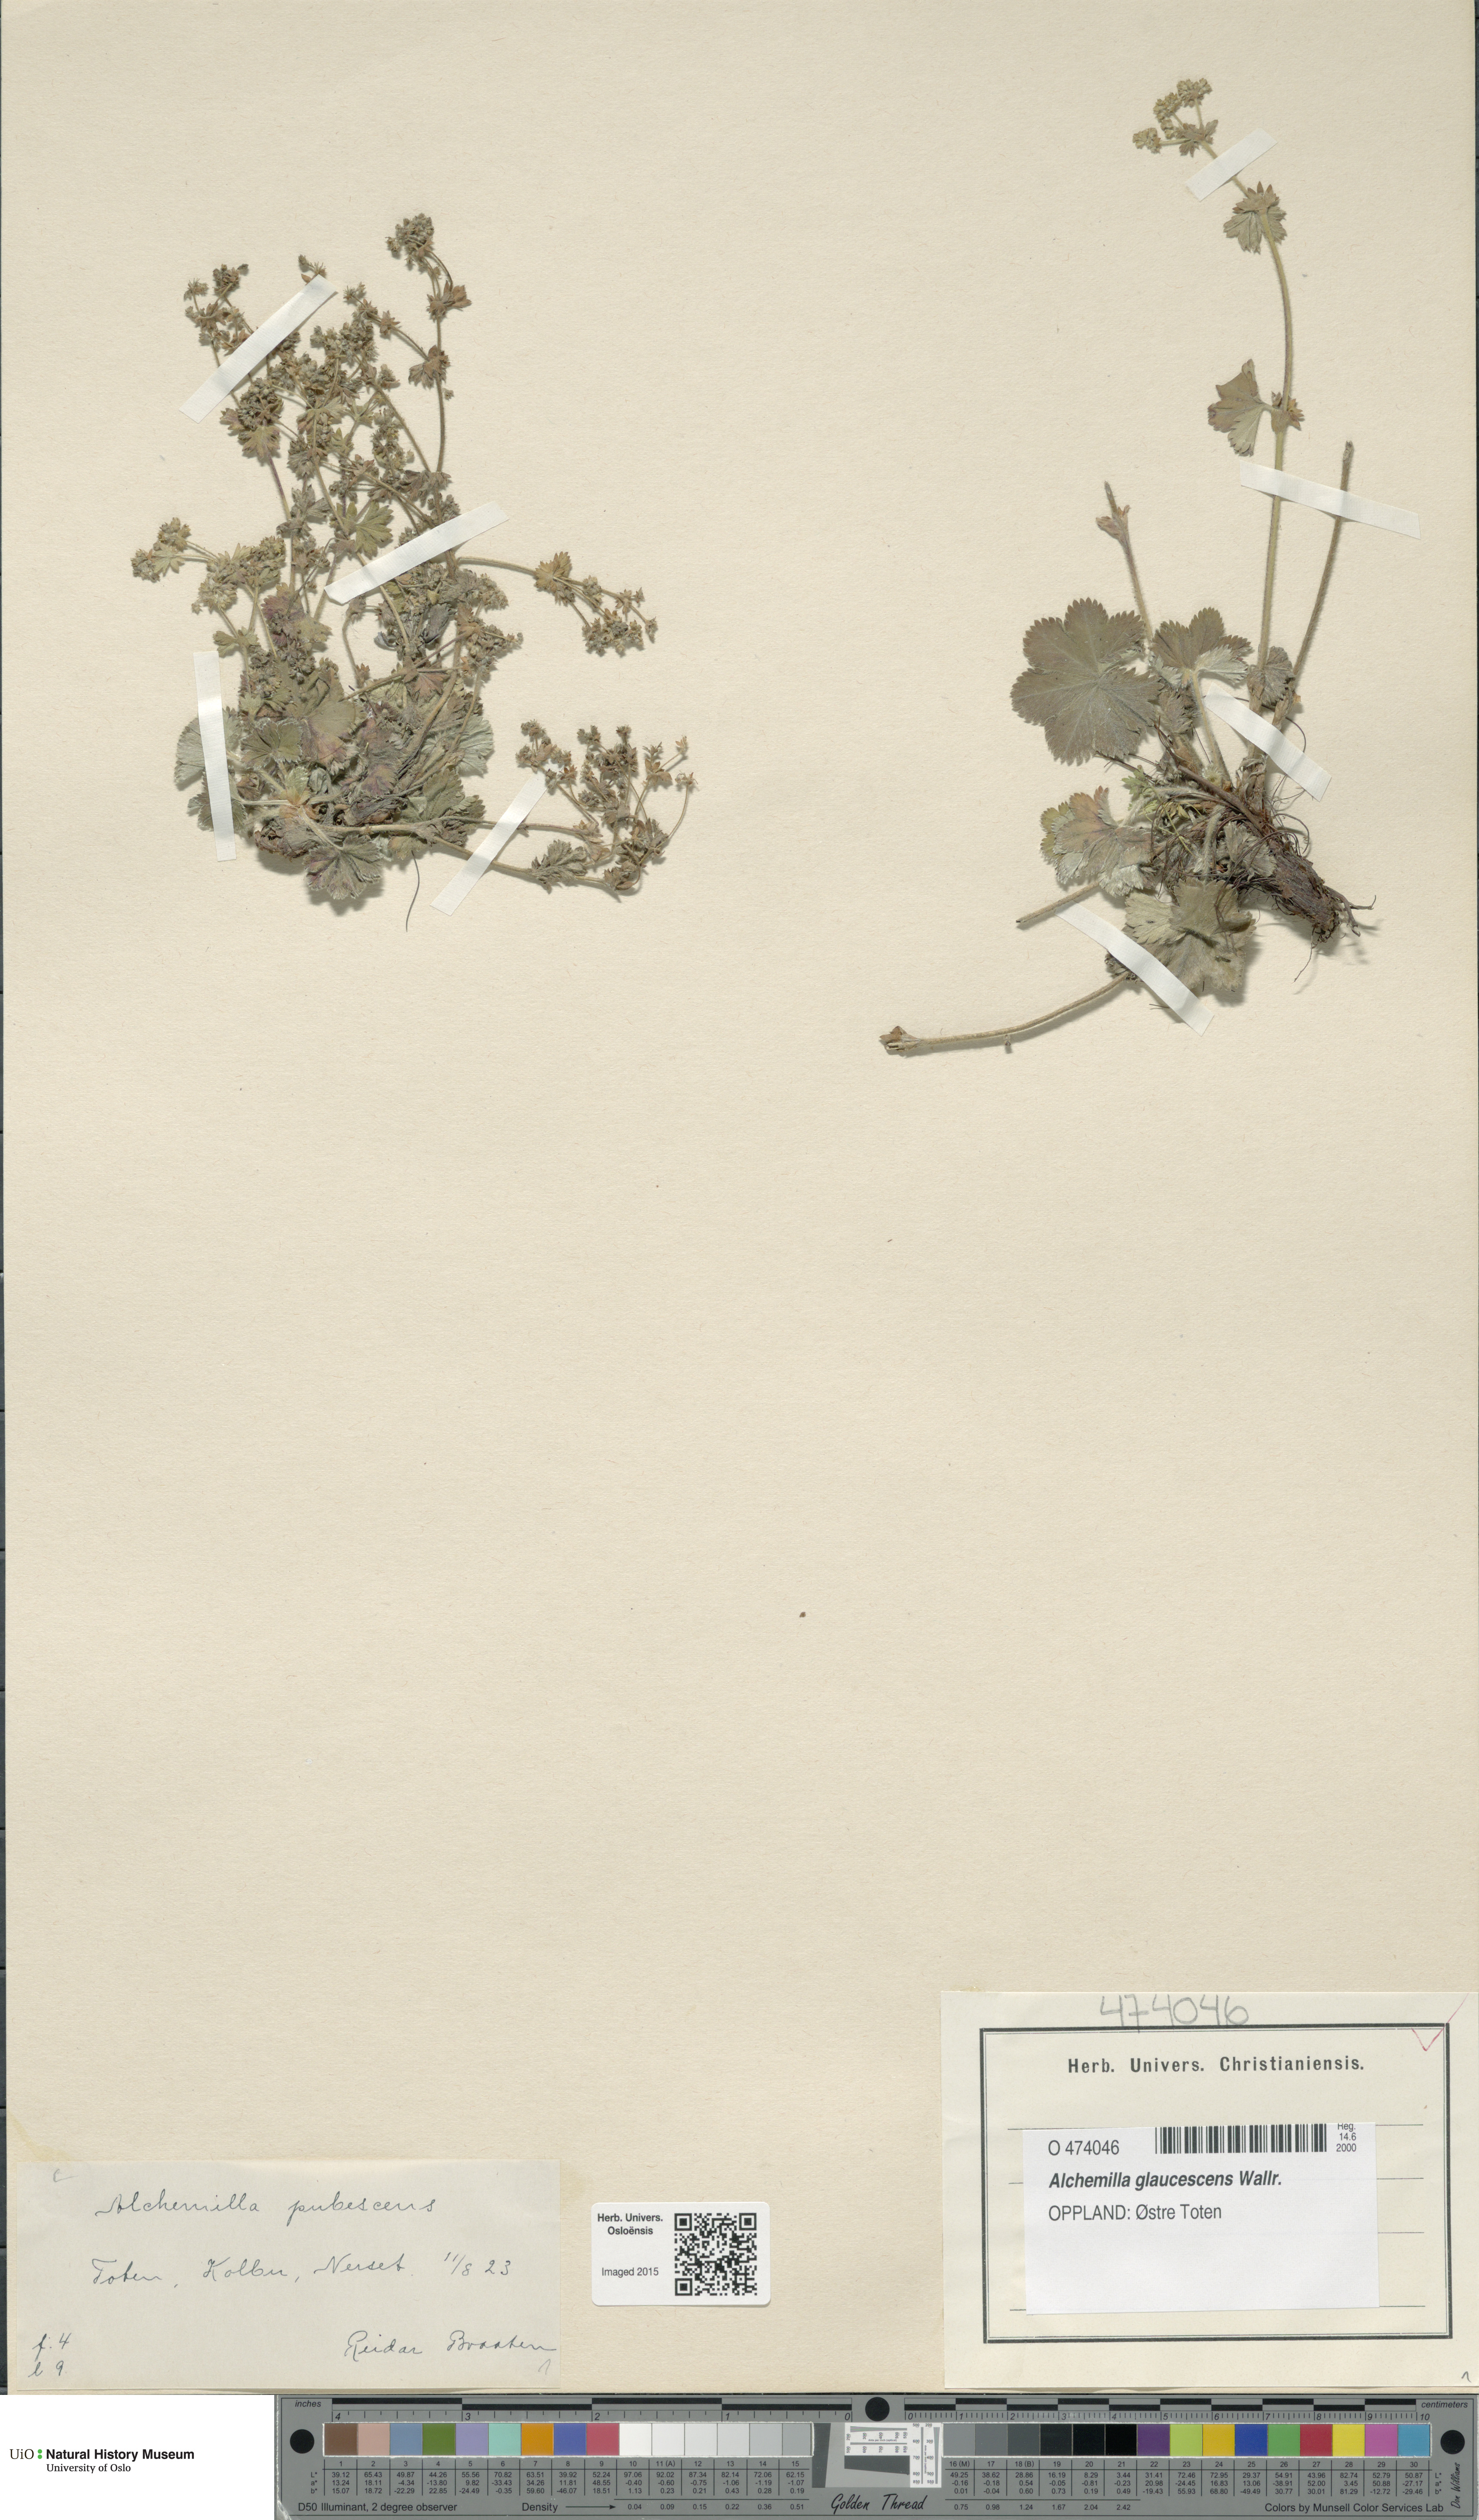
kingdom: Plantae
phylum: Tracheophyta
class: Magnoliopsida
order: Rosales
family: Rosaceae
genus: Alchemilla
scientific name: Alchemilla glaucescens
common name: Silky lady's mantle
